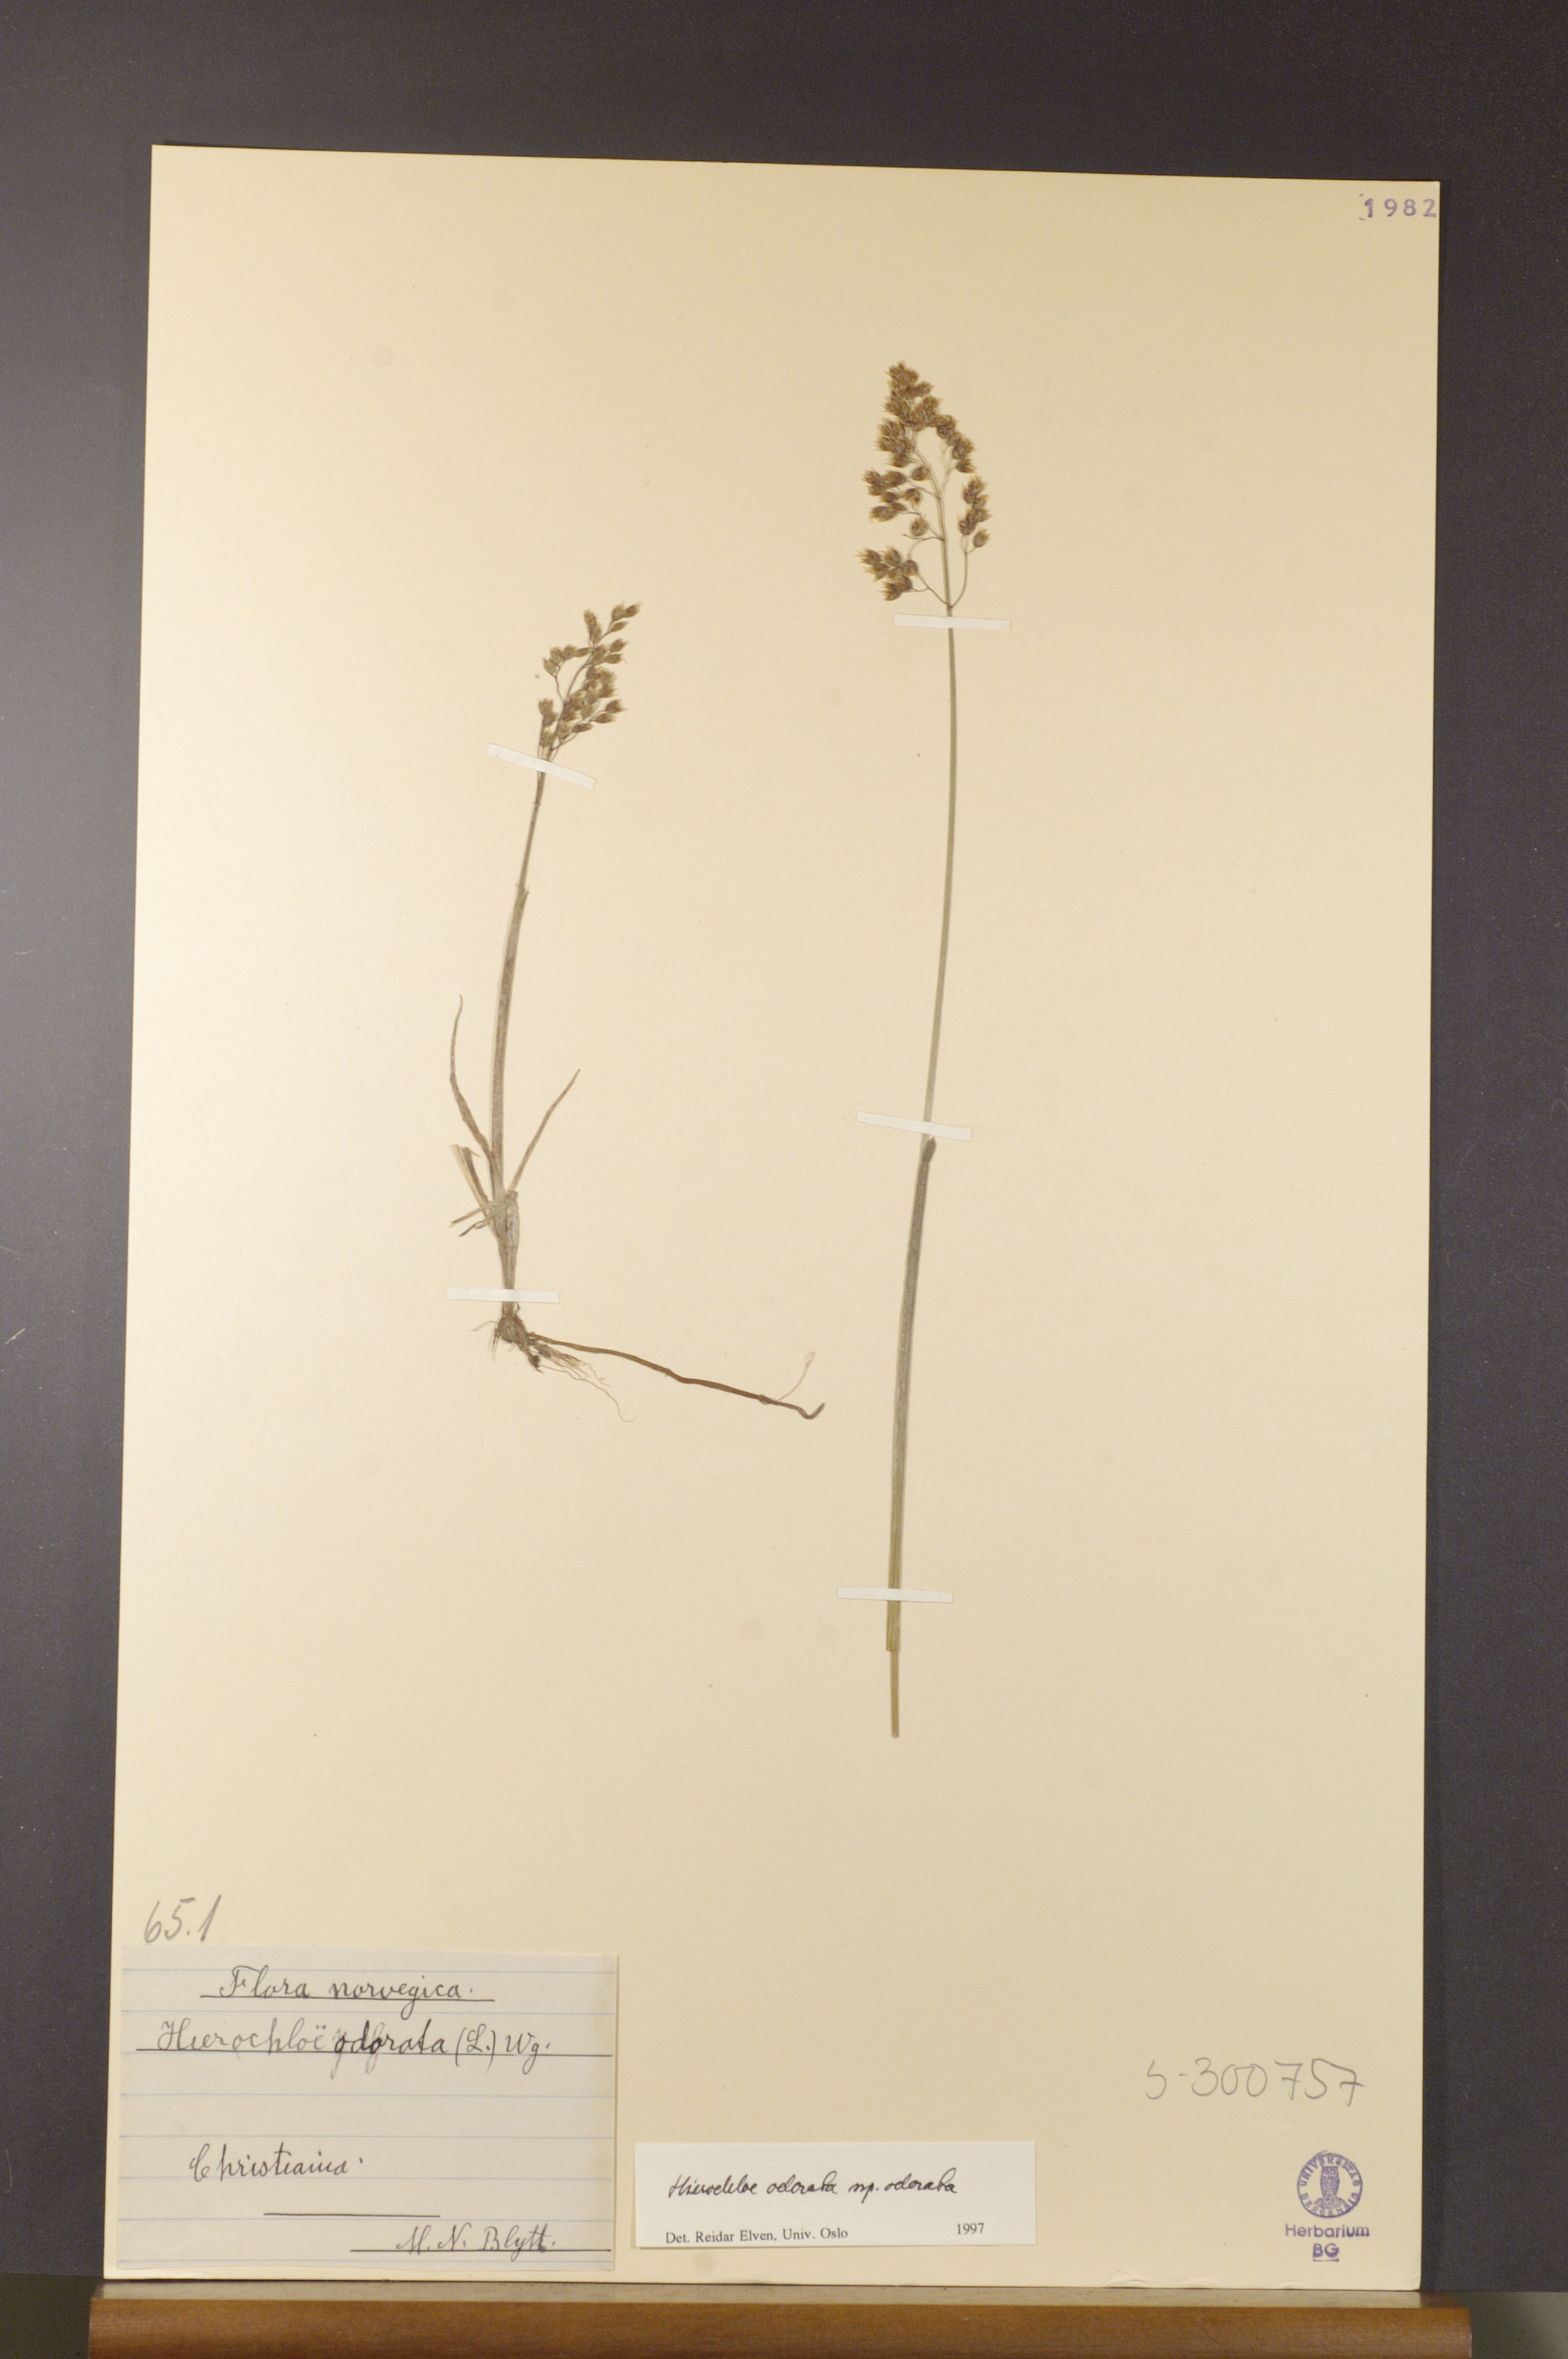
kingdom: Plantae
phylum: Tracheophyta
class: Liliopsida
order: Poales
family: Poaceae
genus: Anthoxanthum
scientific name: Anthoxanthum nitens
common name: Holy grass
